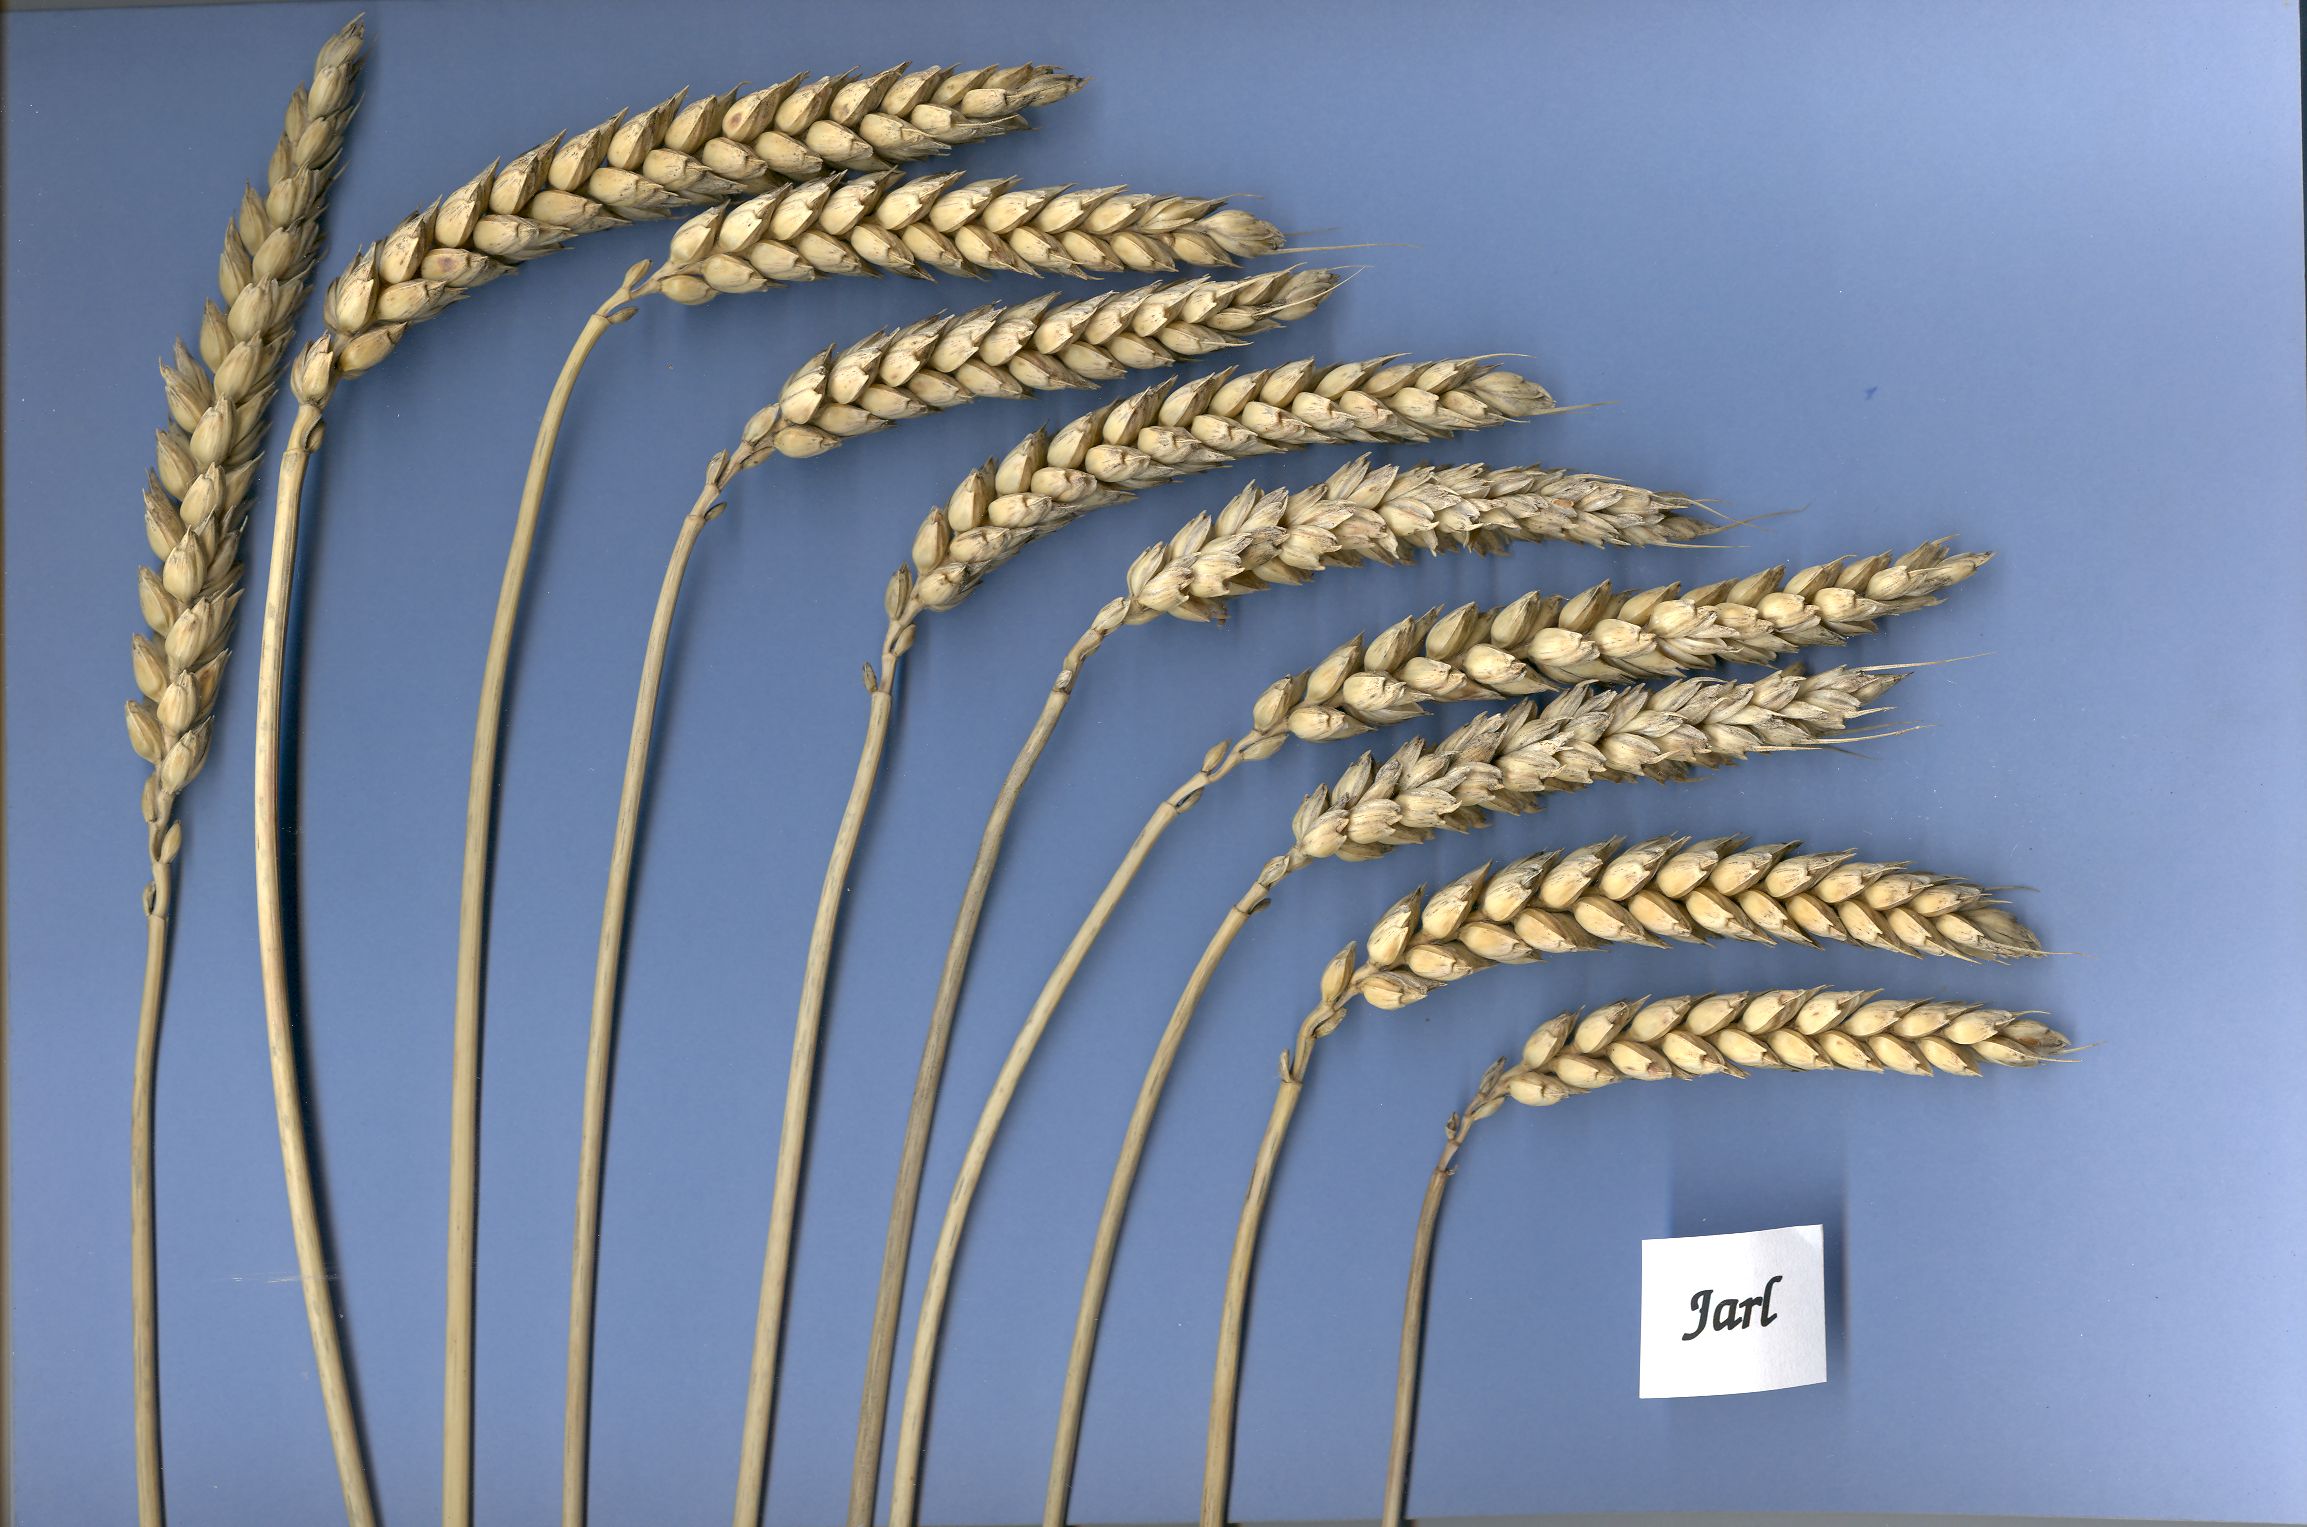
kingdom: Plantae
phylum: Tracheophyta
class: Liliopsida
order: Poales
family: Poaceae
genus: Triticum
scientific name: Triticum aestivum
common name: Common wheat
